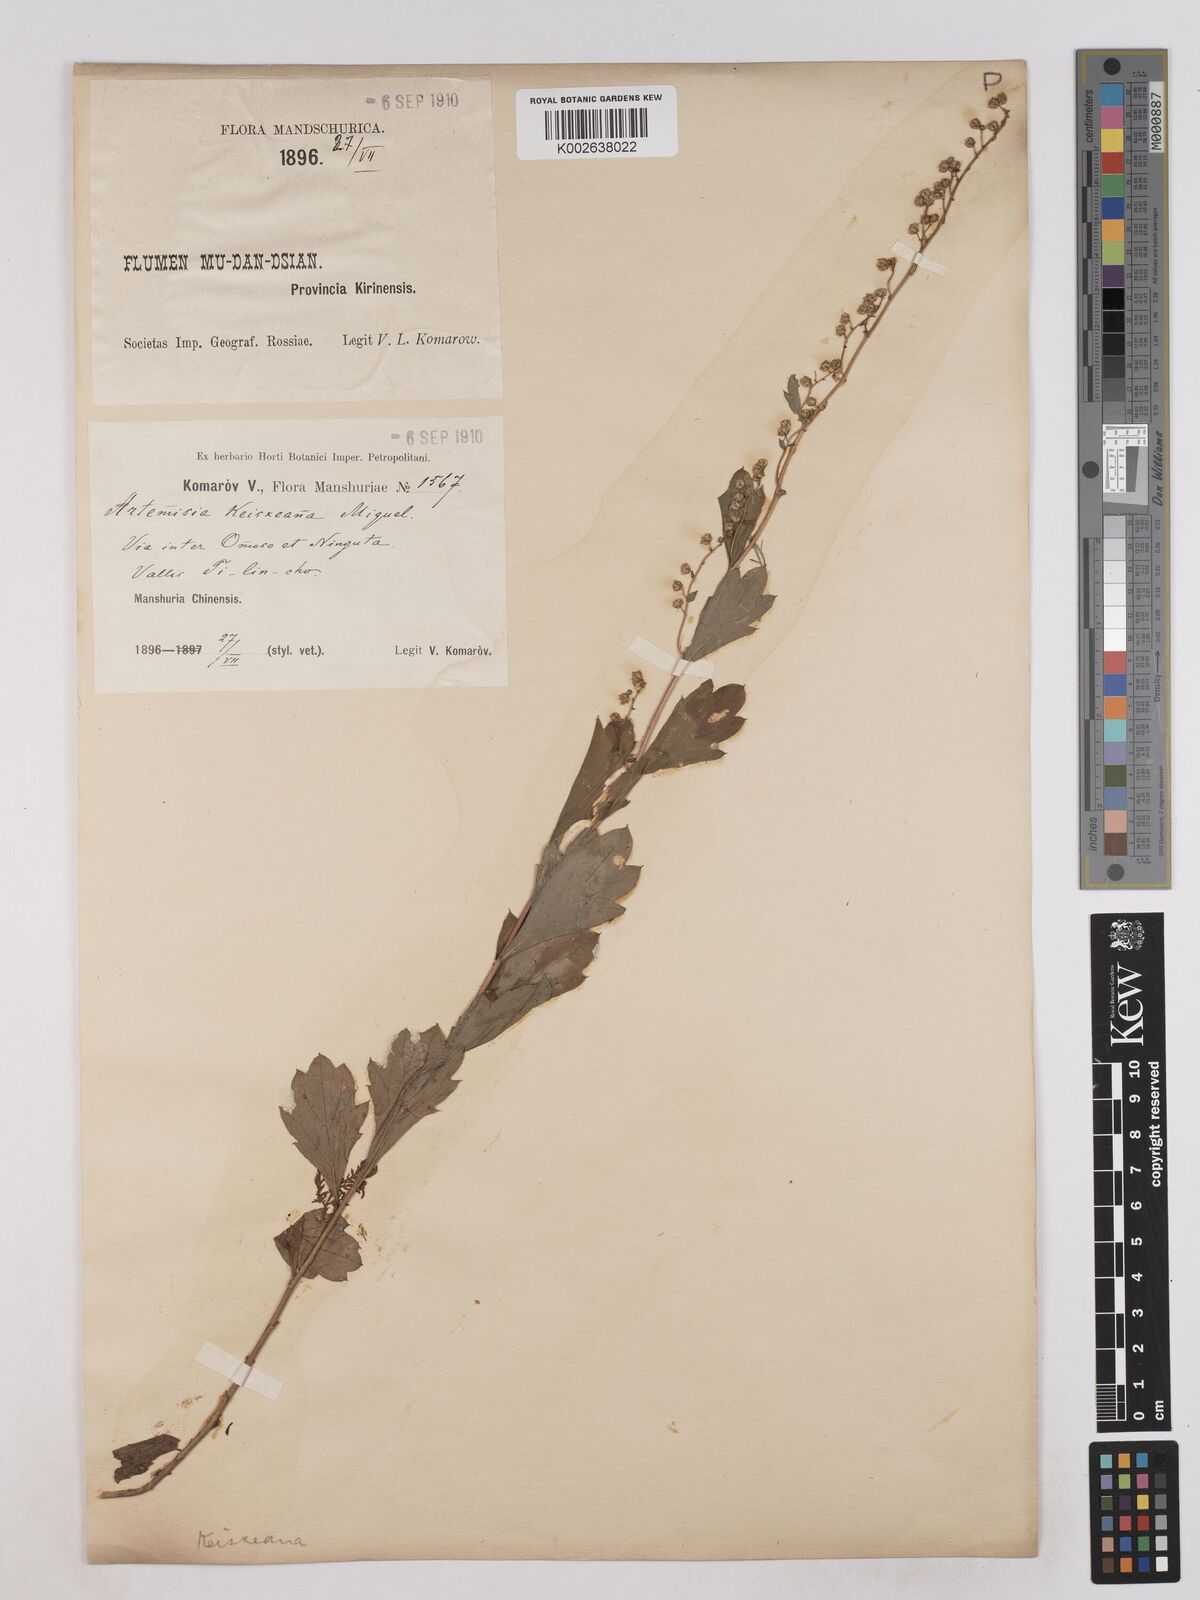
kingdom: Plantae
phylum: Tracheophyta
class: Magnoliopsida
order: Asterales
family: Asteraceae
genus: Artemisia
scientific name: Artemisia keiskeana
